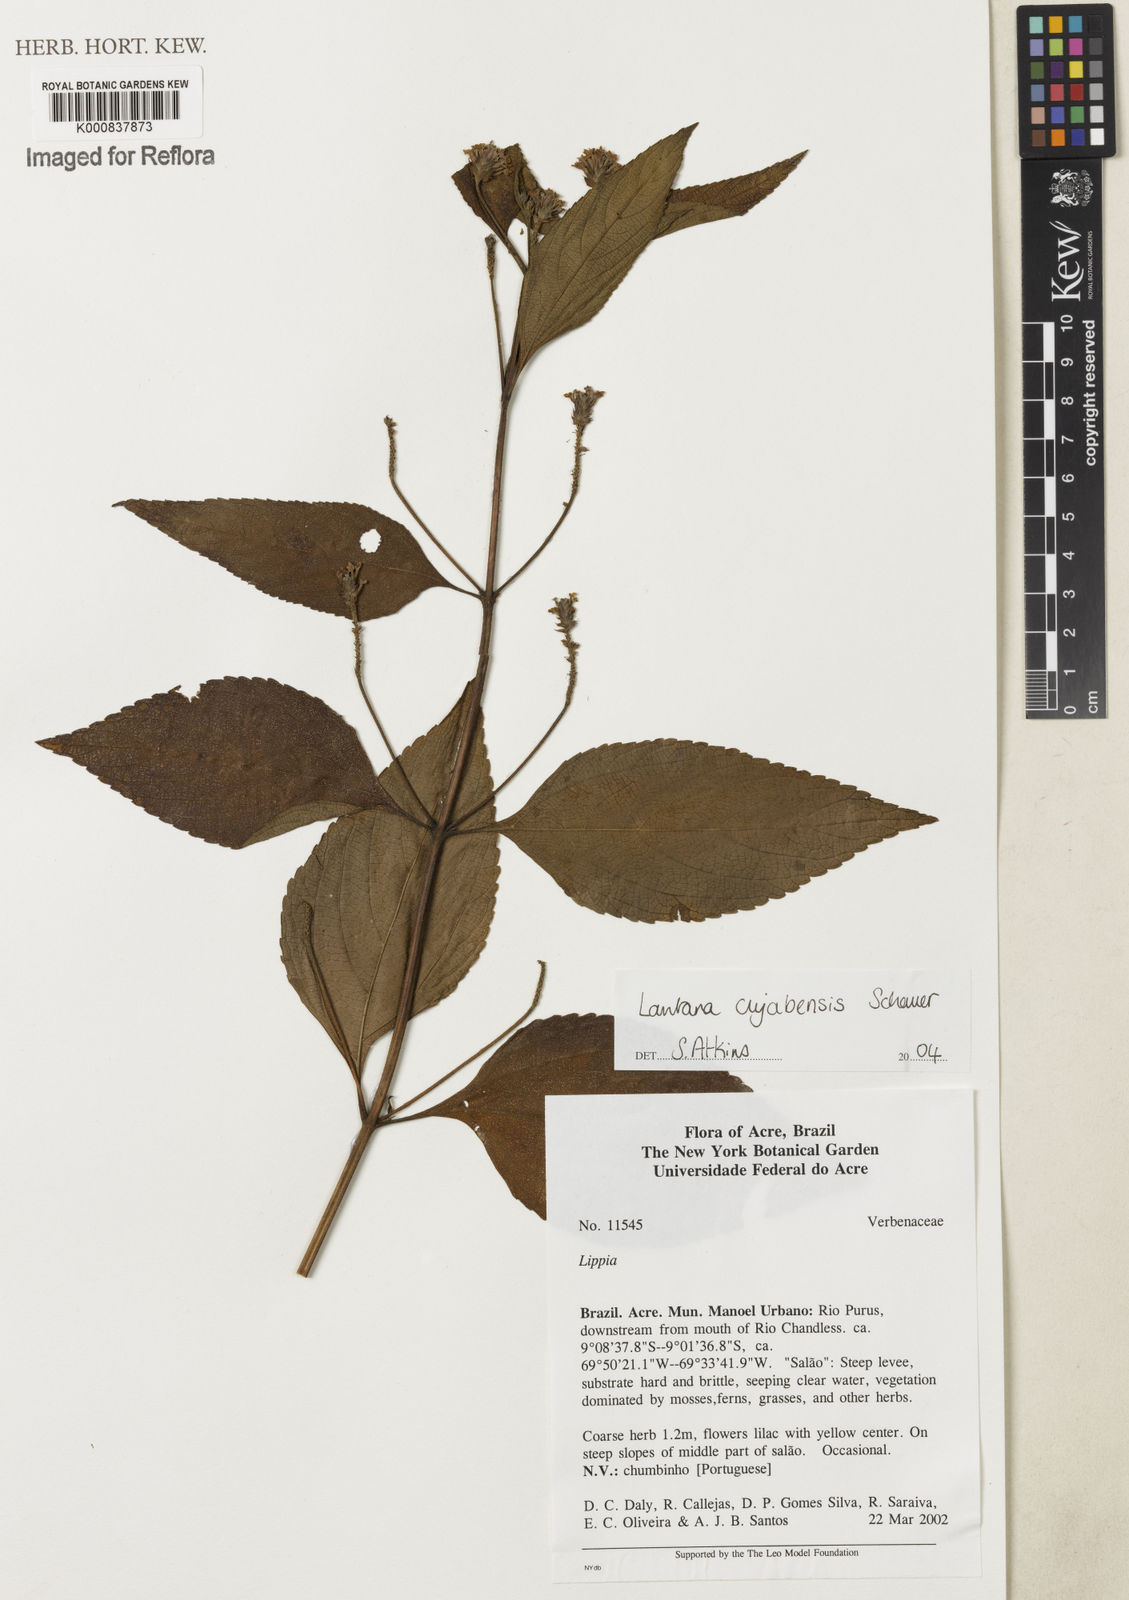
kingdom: Plantae
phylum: Tracheophyta
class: Magnoliopsida
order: Lamiales
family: Verbenaceae
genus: Lantana
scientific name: Lantana cujabensis
